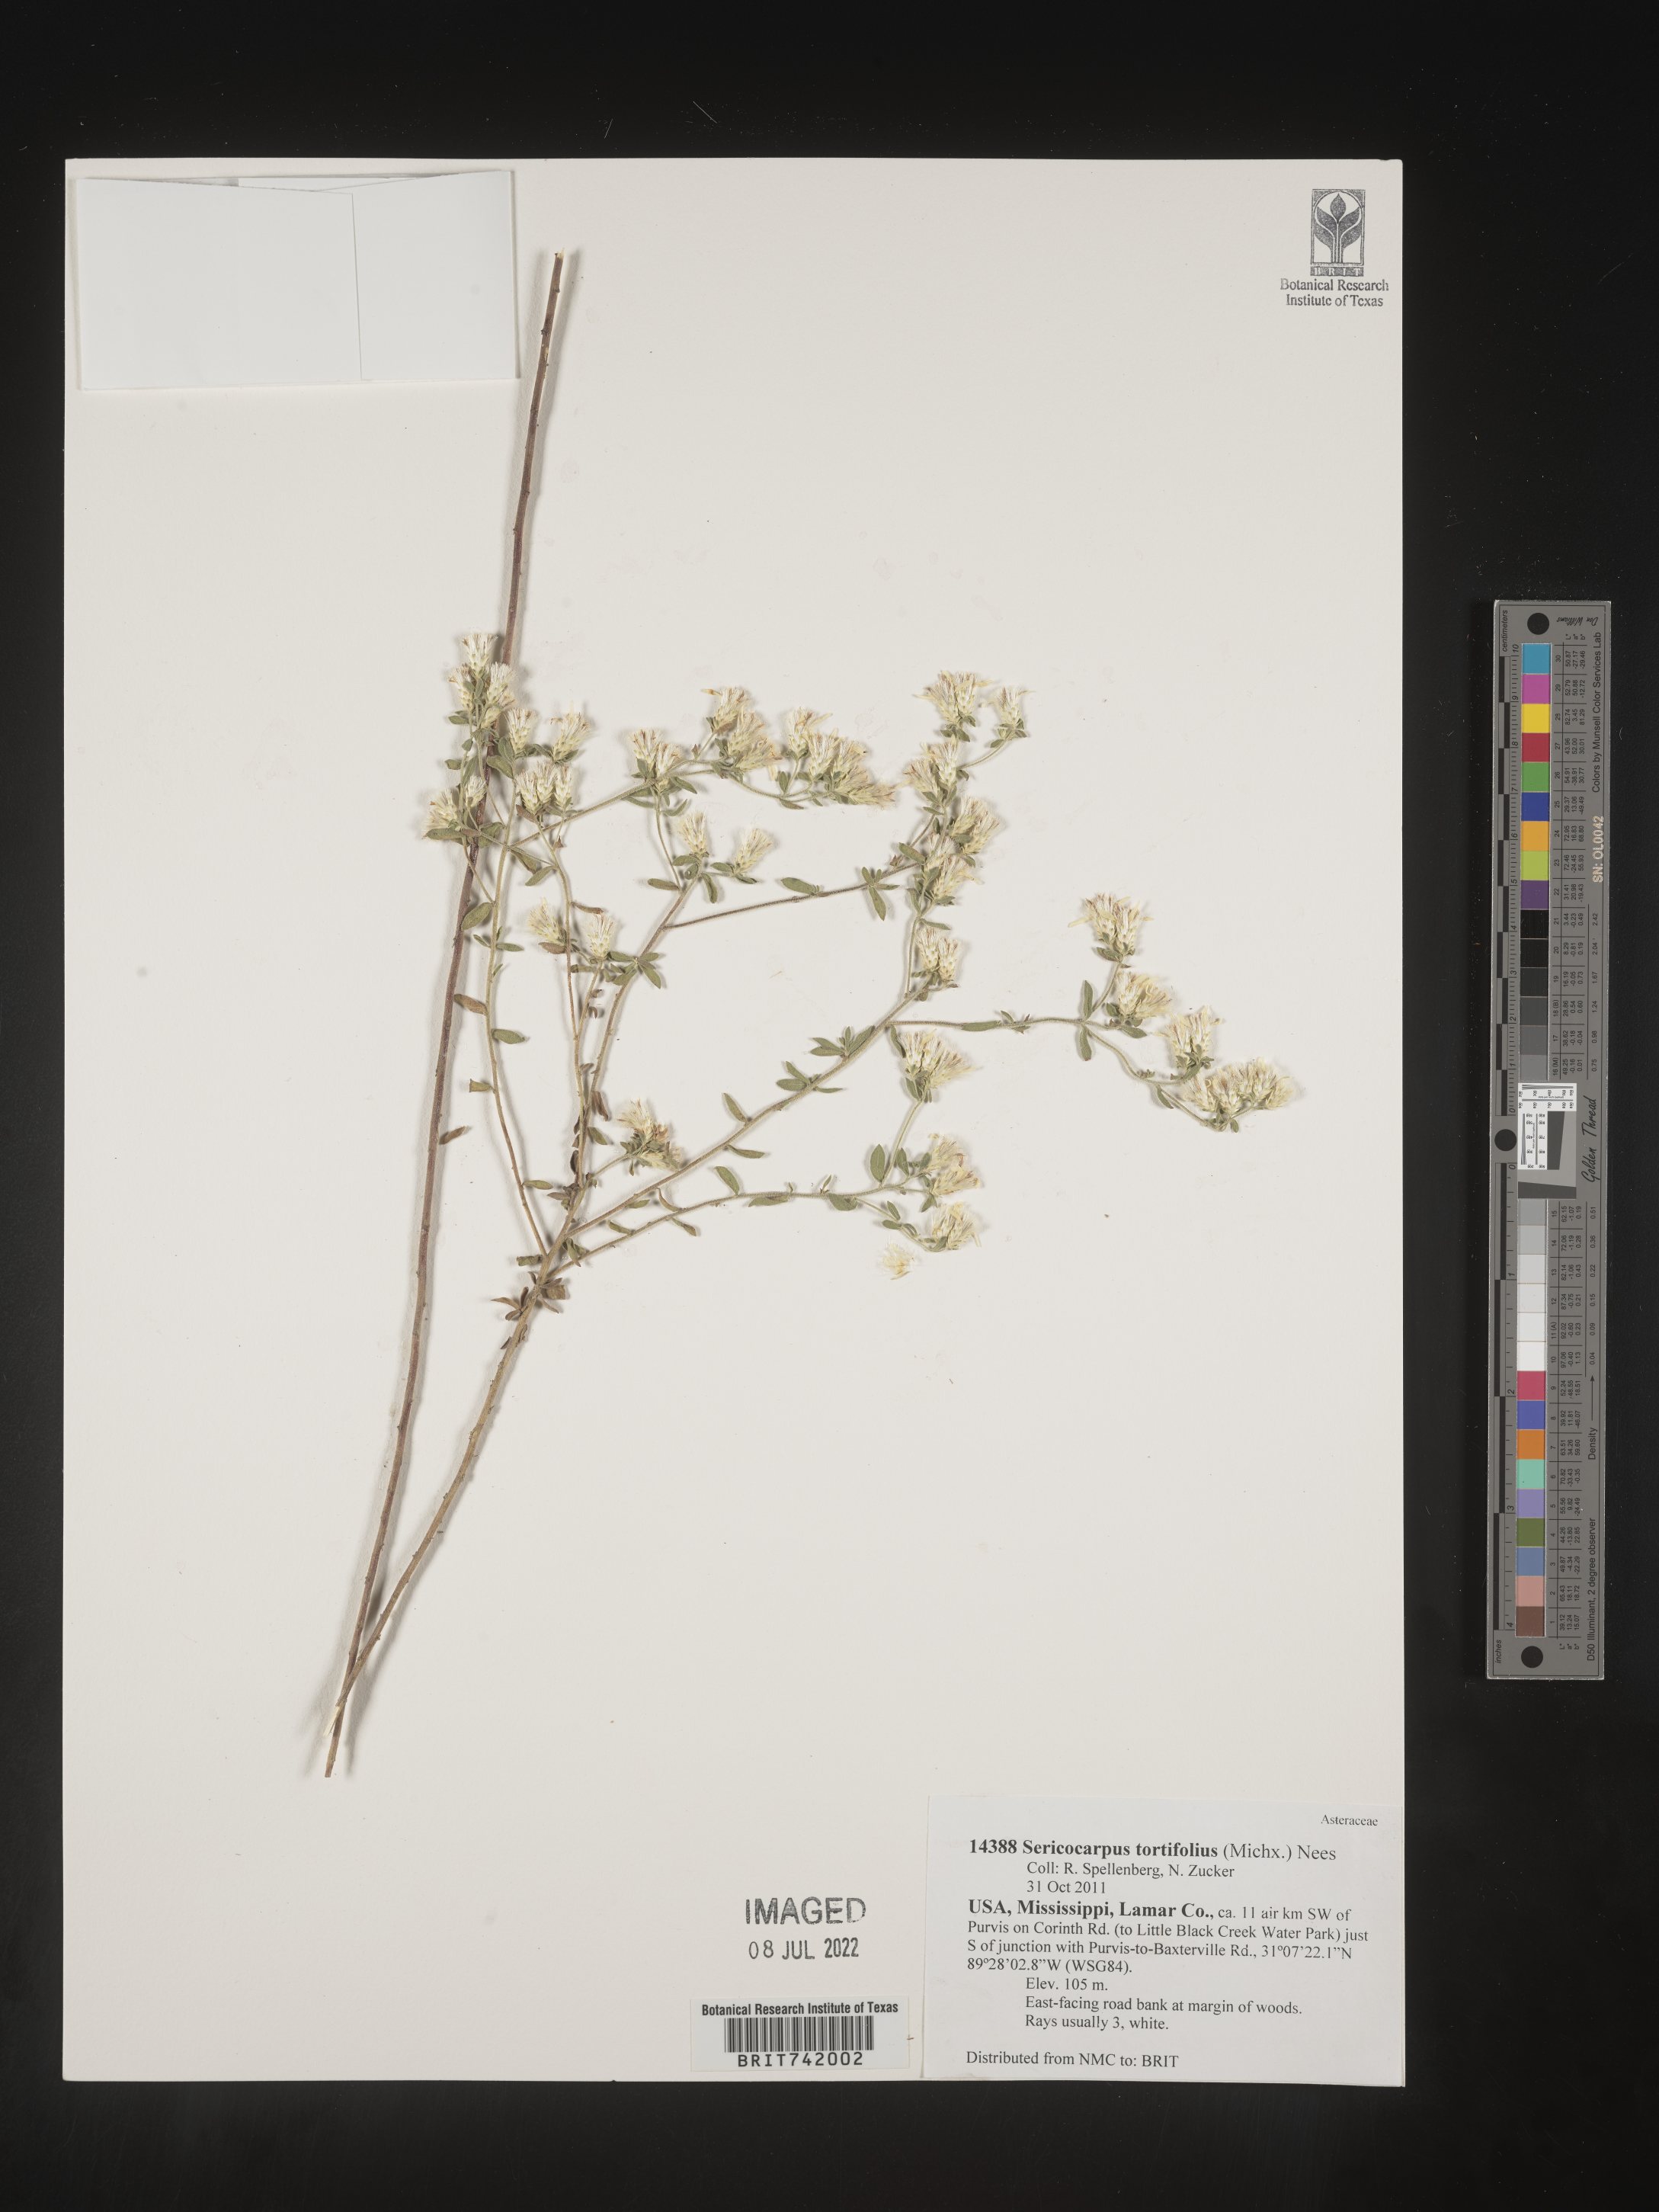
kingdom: Plantae
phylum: Tracheophyta
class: Magnoliopsida
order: Asterales
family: Asteraceae
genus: Sericocarpus
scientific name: Sericocarpus tortifolius
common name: Dixie aster
